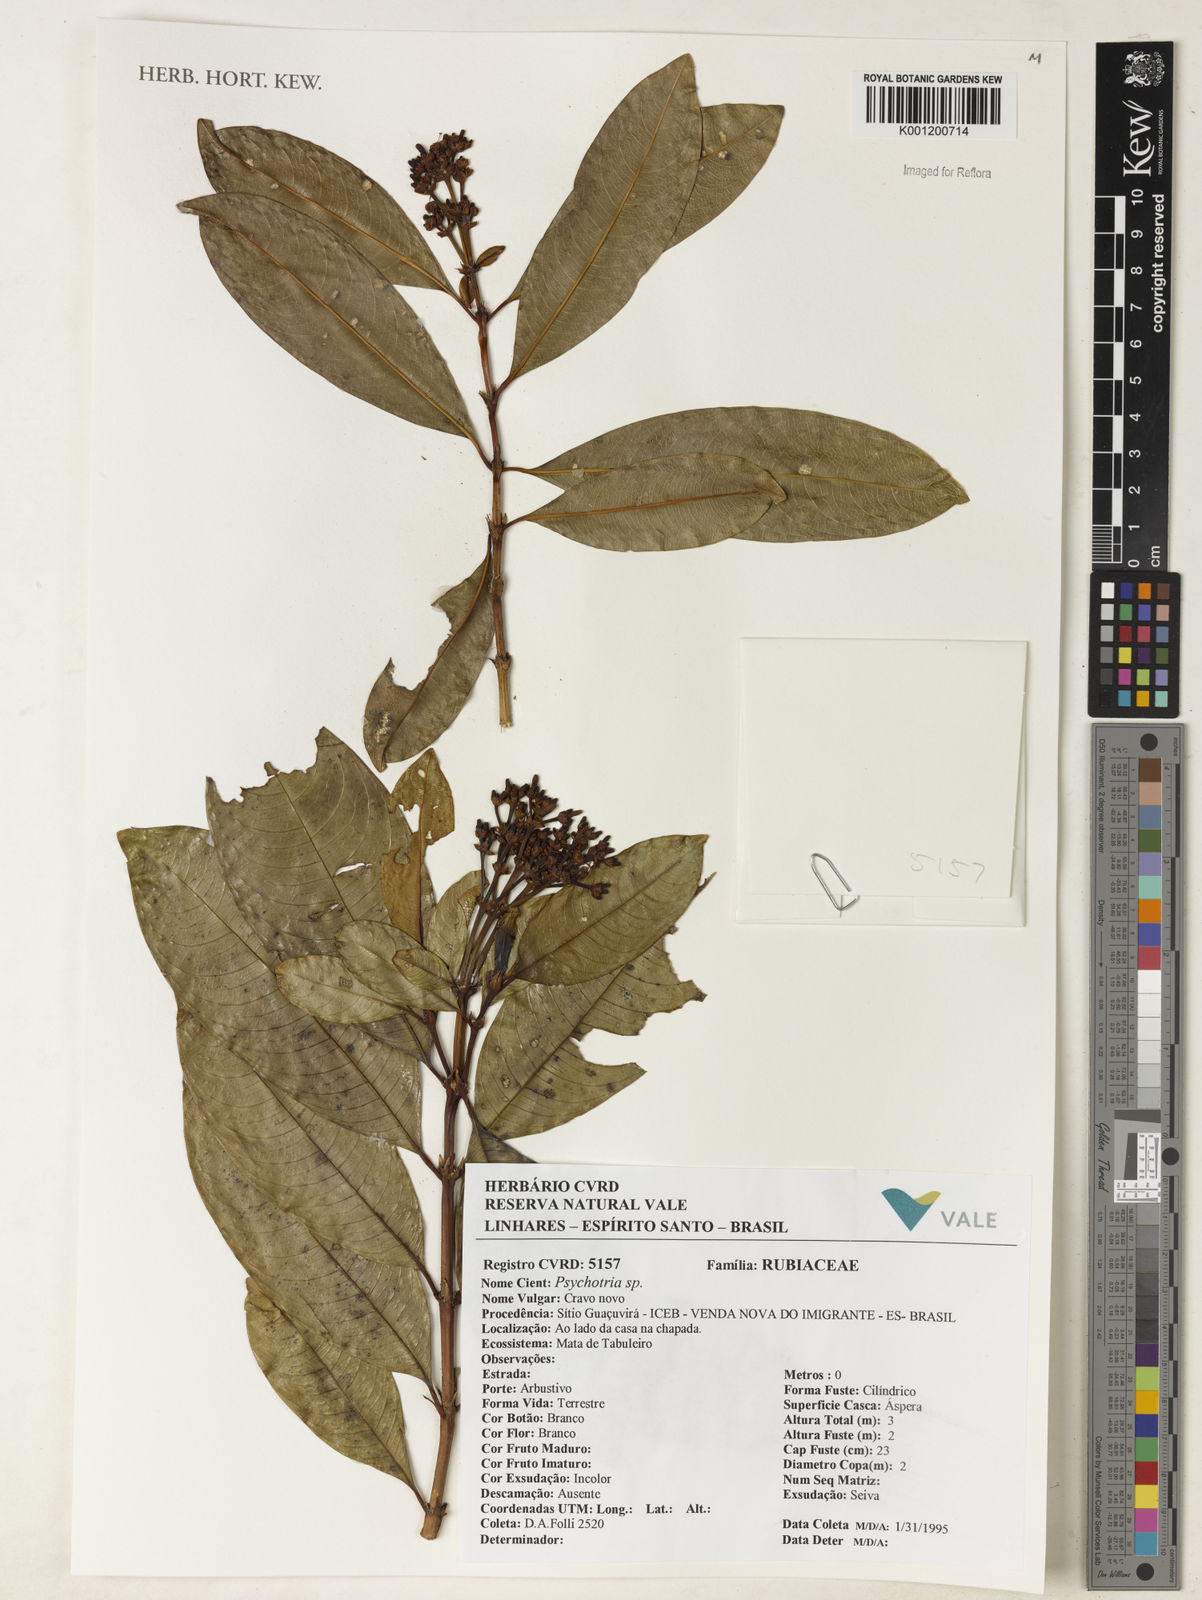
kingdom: Plantae
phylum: Tracheophyta
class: Magnoliopsida
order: Gentianales
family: Rubiaceae
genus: Psychotria
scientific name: Psychotria
